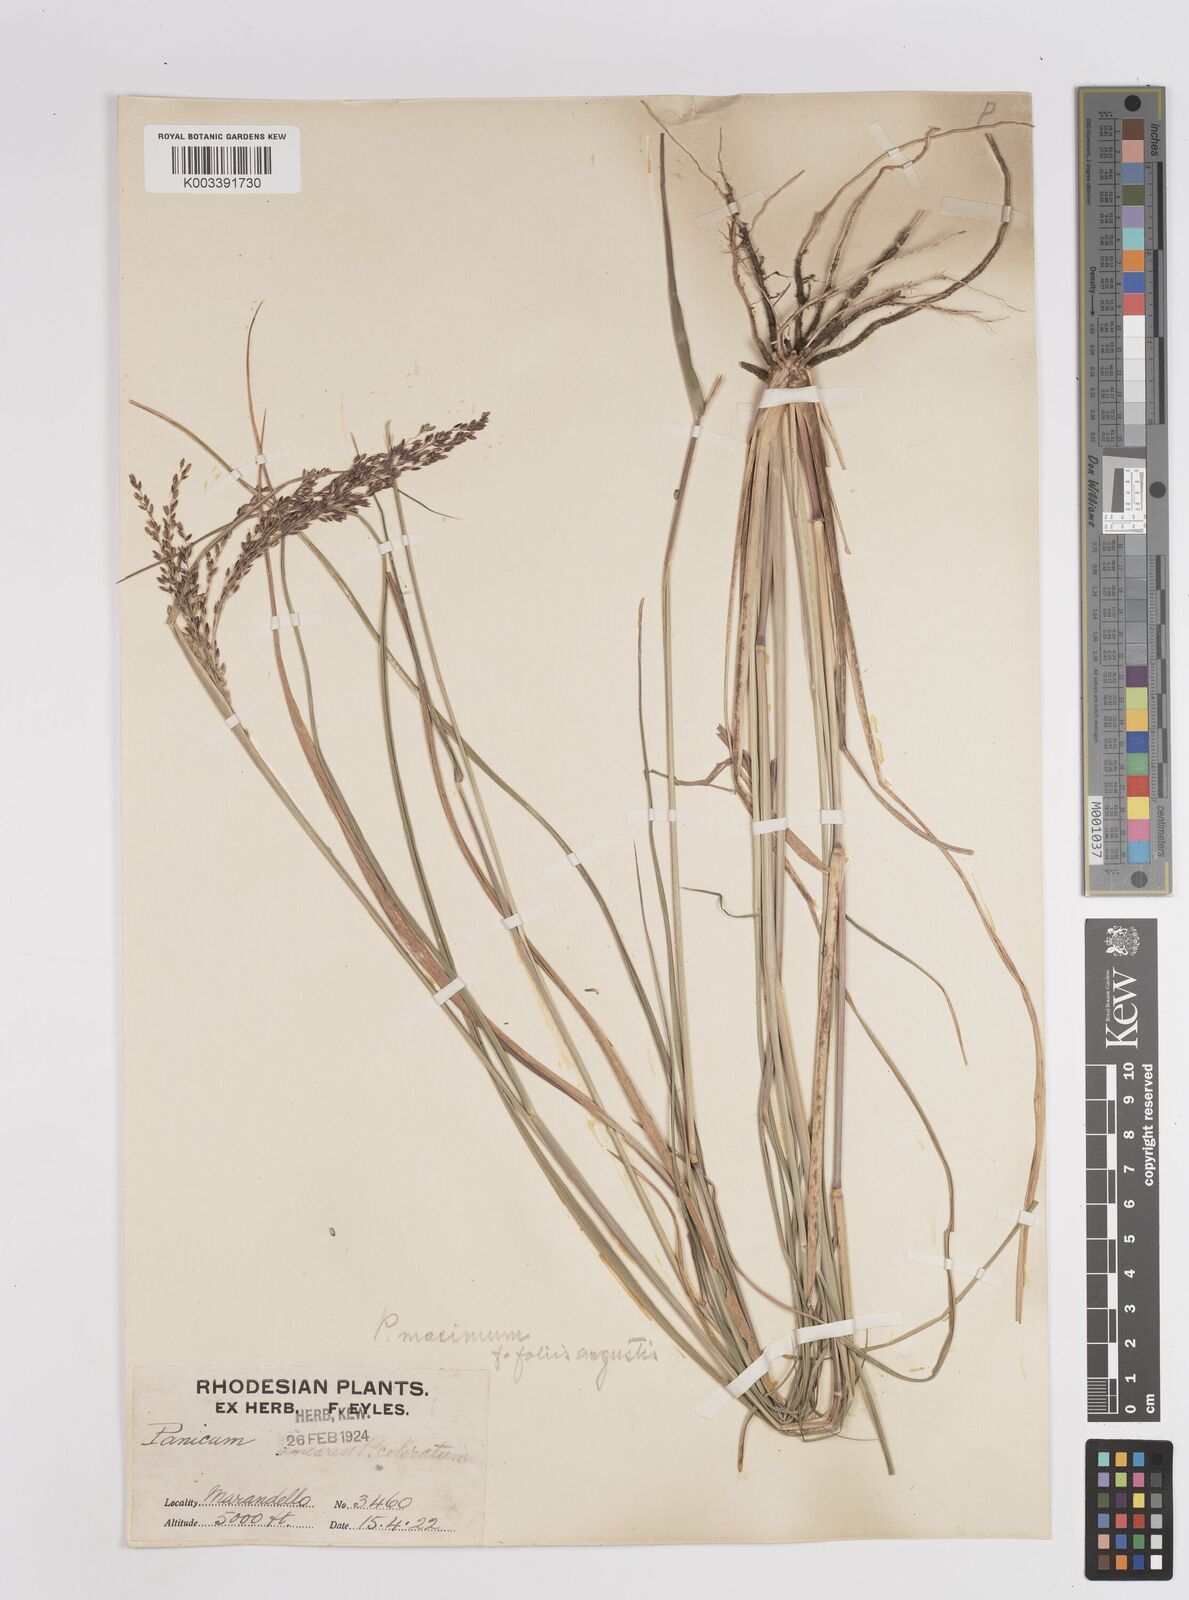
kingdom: Plantae
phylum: Tracheophyta
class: Liliopsida
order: Poales
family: Poaceae
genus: Megathyrsus
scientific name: Megathyrsus maximus
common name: Guineagrass
